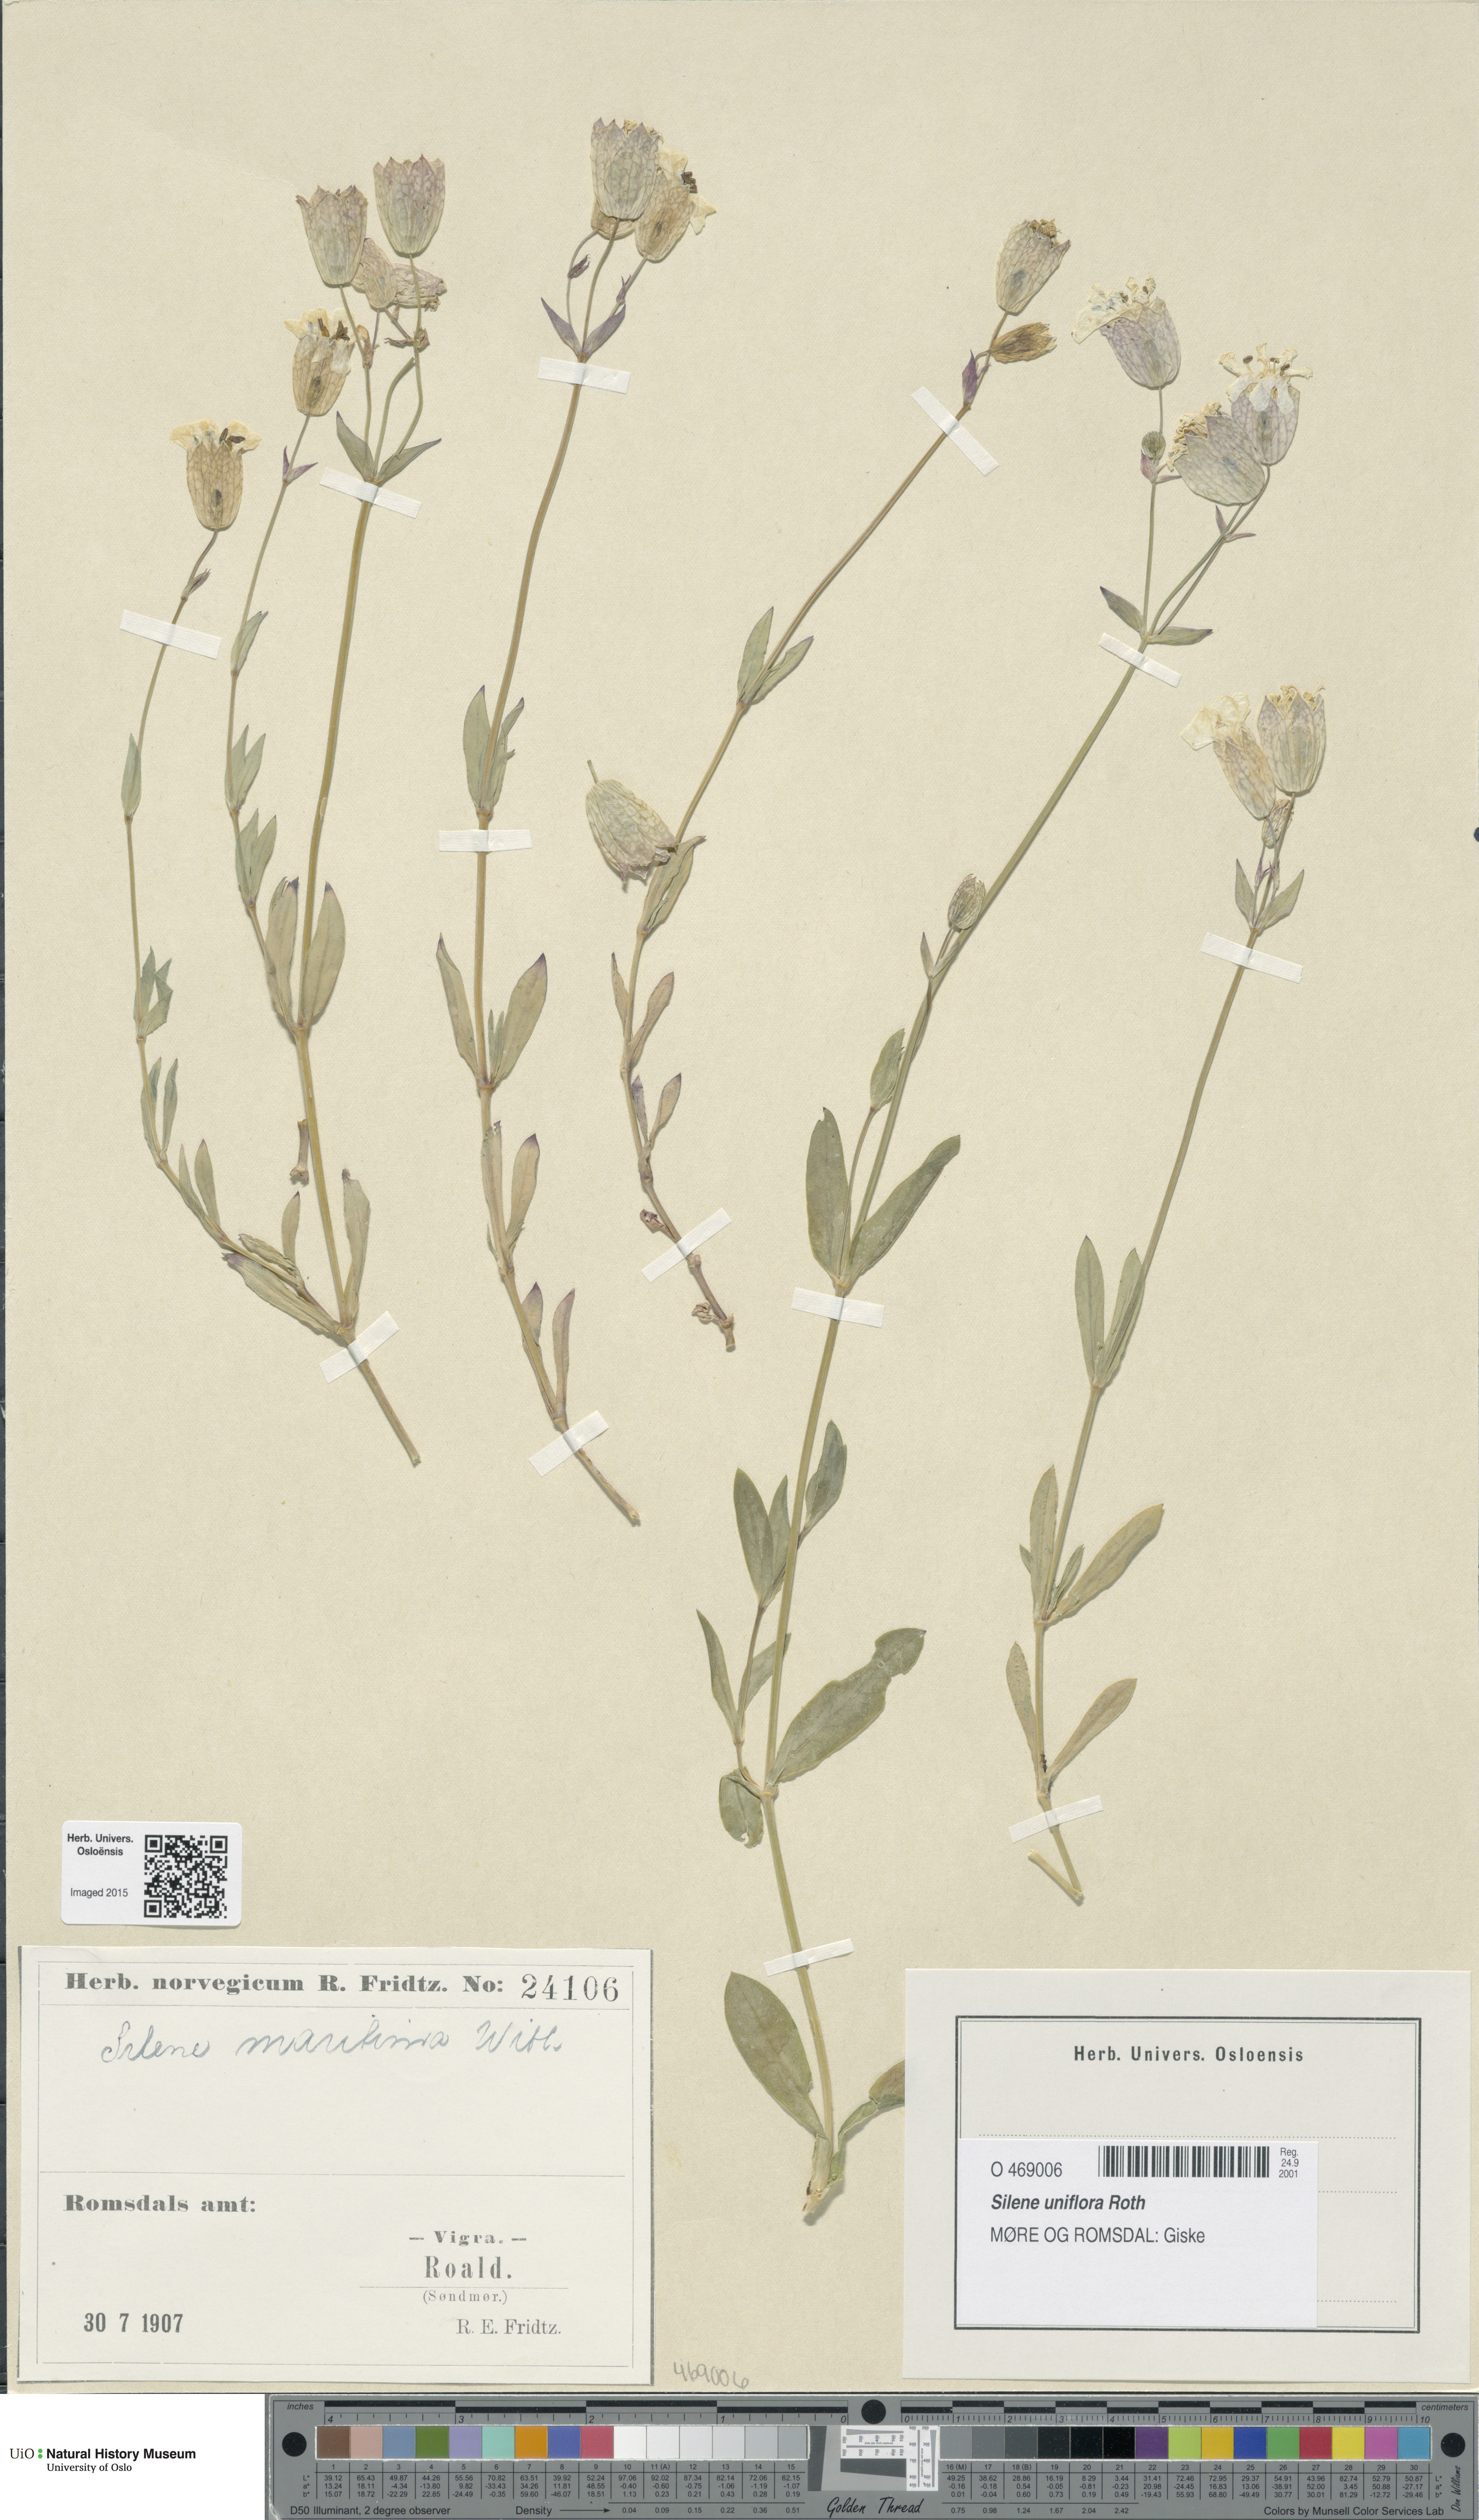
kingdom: Plantae
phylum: Tracheophyta
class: Magnoliopsida
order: Caryophyllales
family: Caryophyllaceae
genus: Silene
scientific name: Silene uniflora
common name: Sea campion
